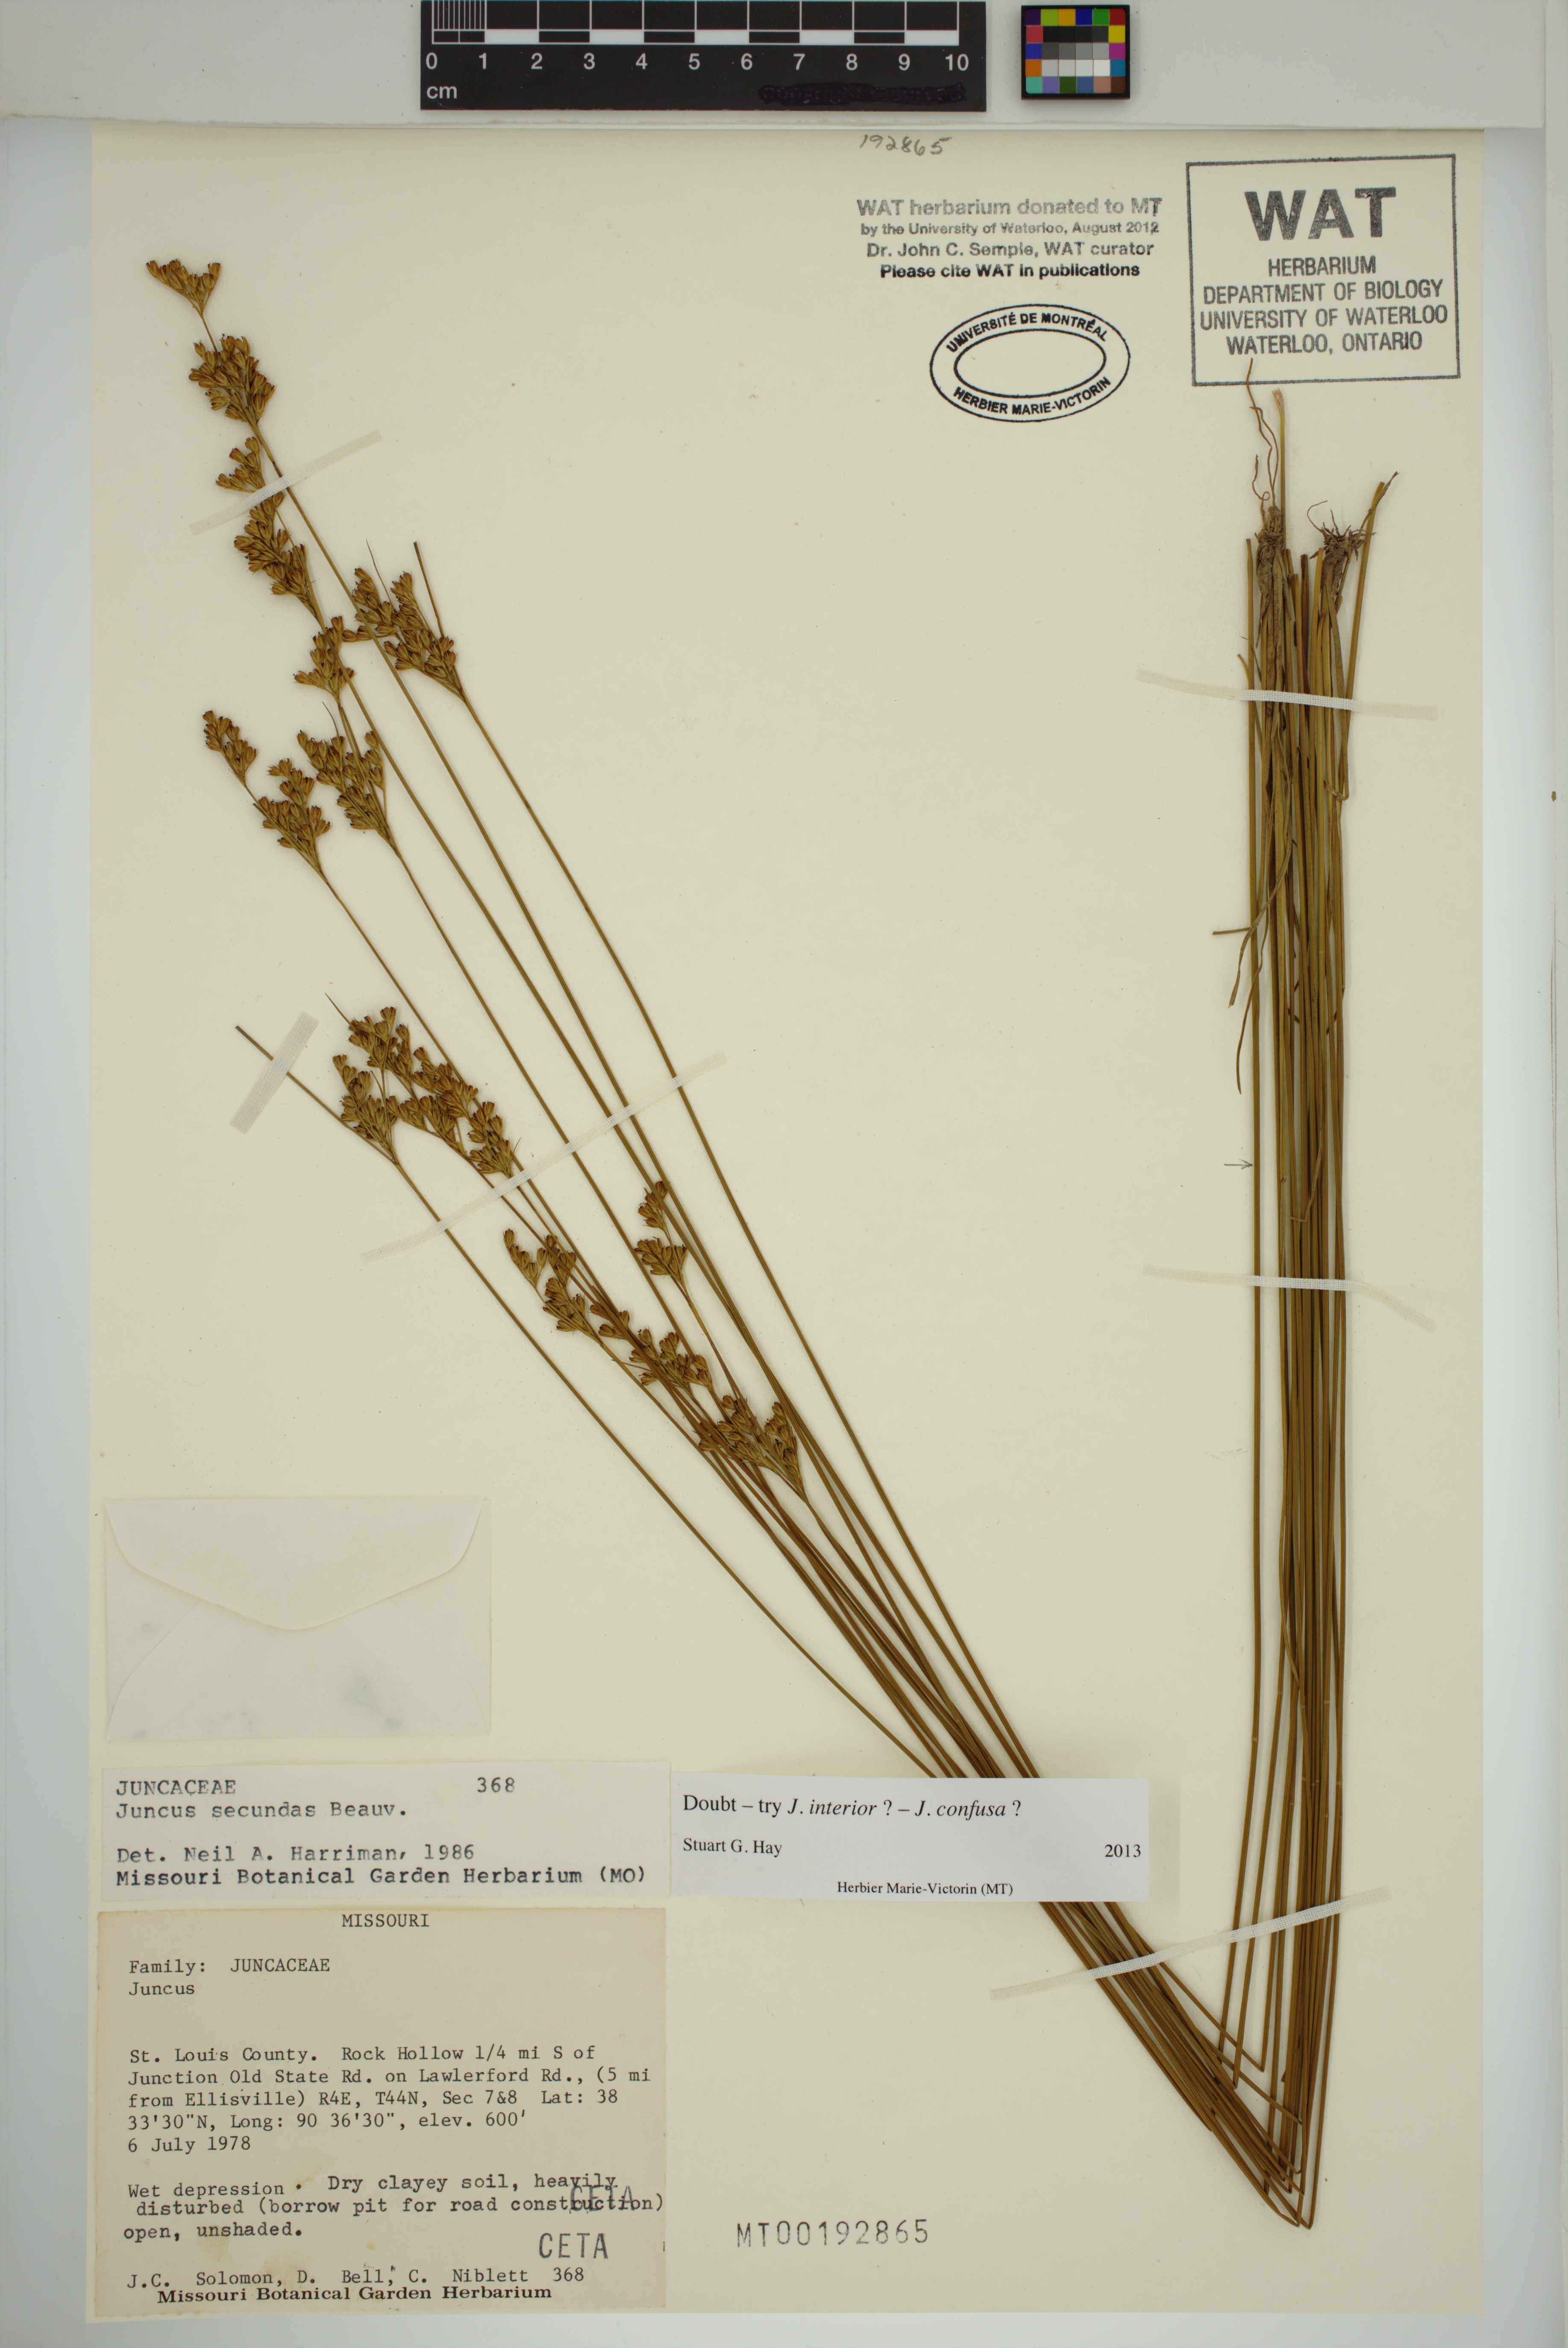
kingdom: Plantae
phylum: Tracheophyta
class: Liliopsida
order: Poales
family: Juncaceae
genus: Juncus
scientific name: Juncus brachyphyllus
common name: Tufted-stem rush
